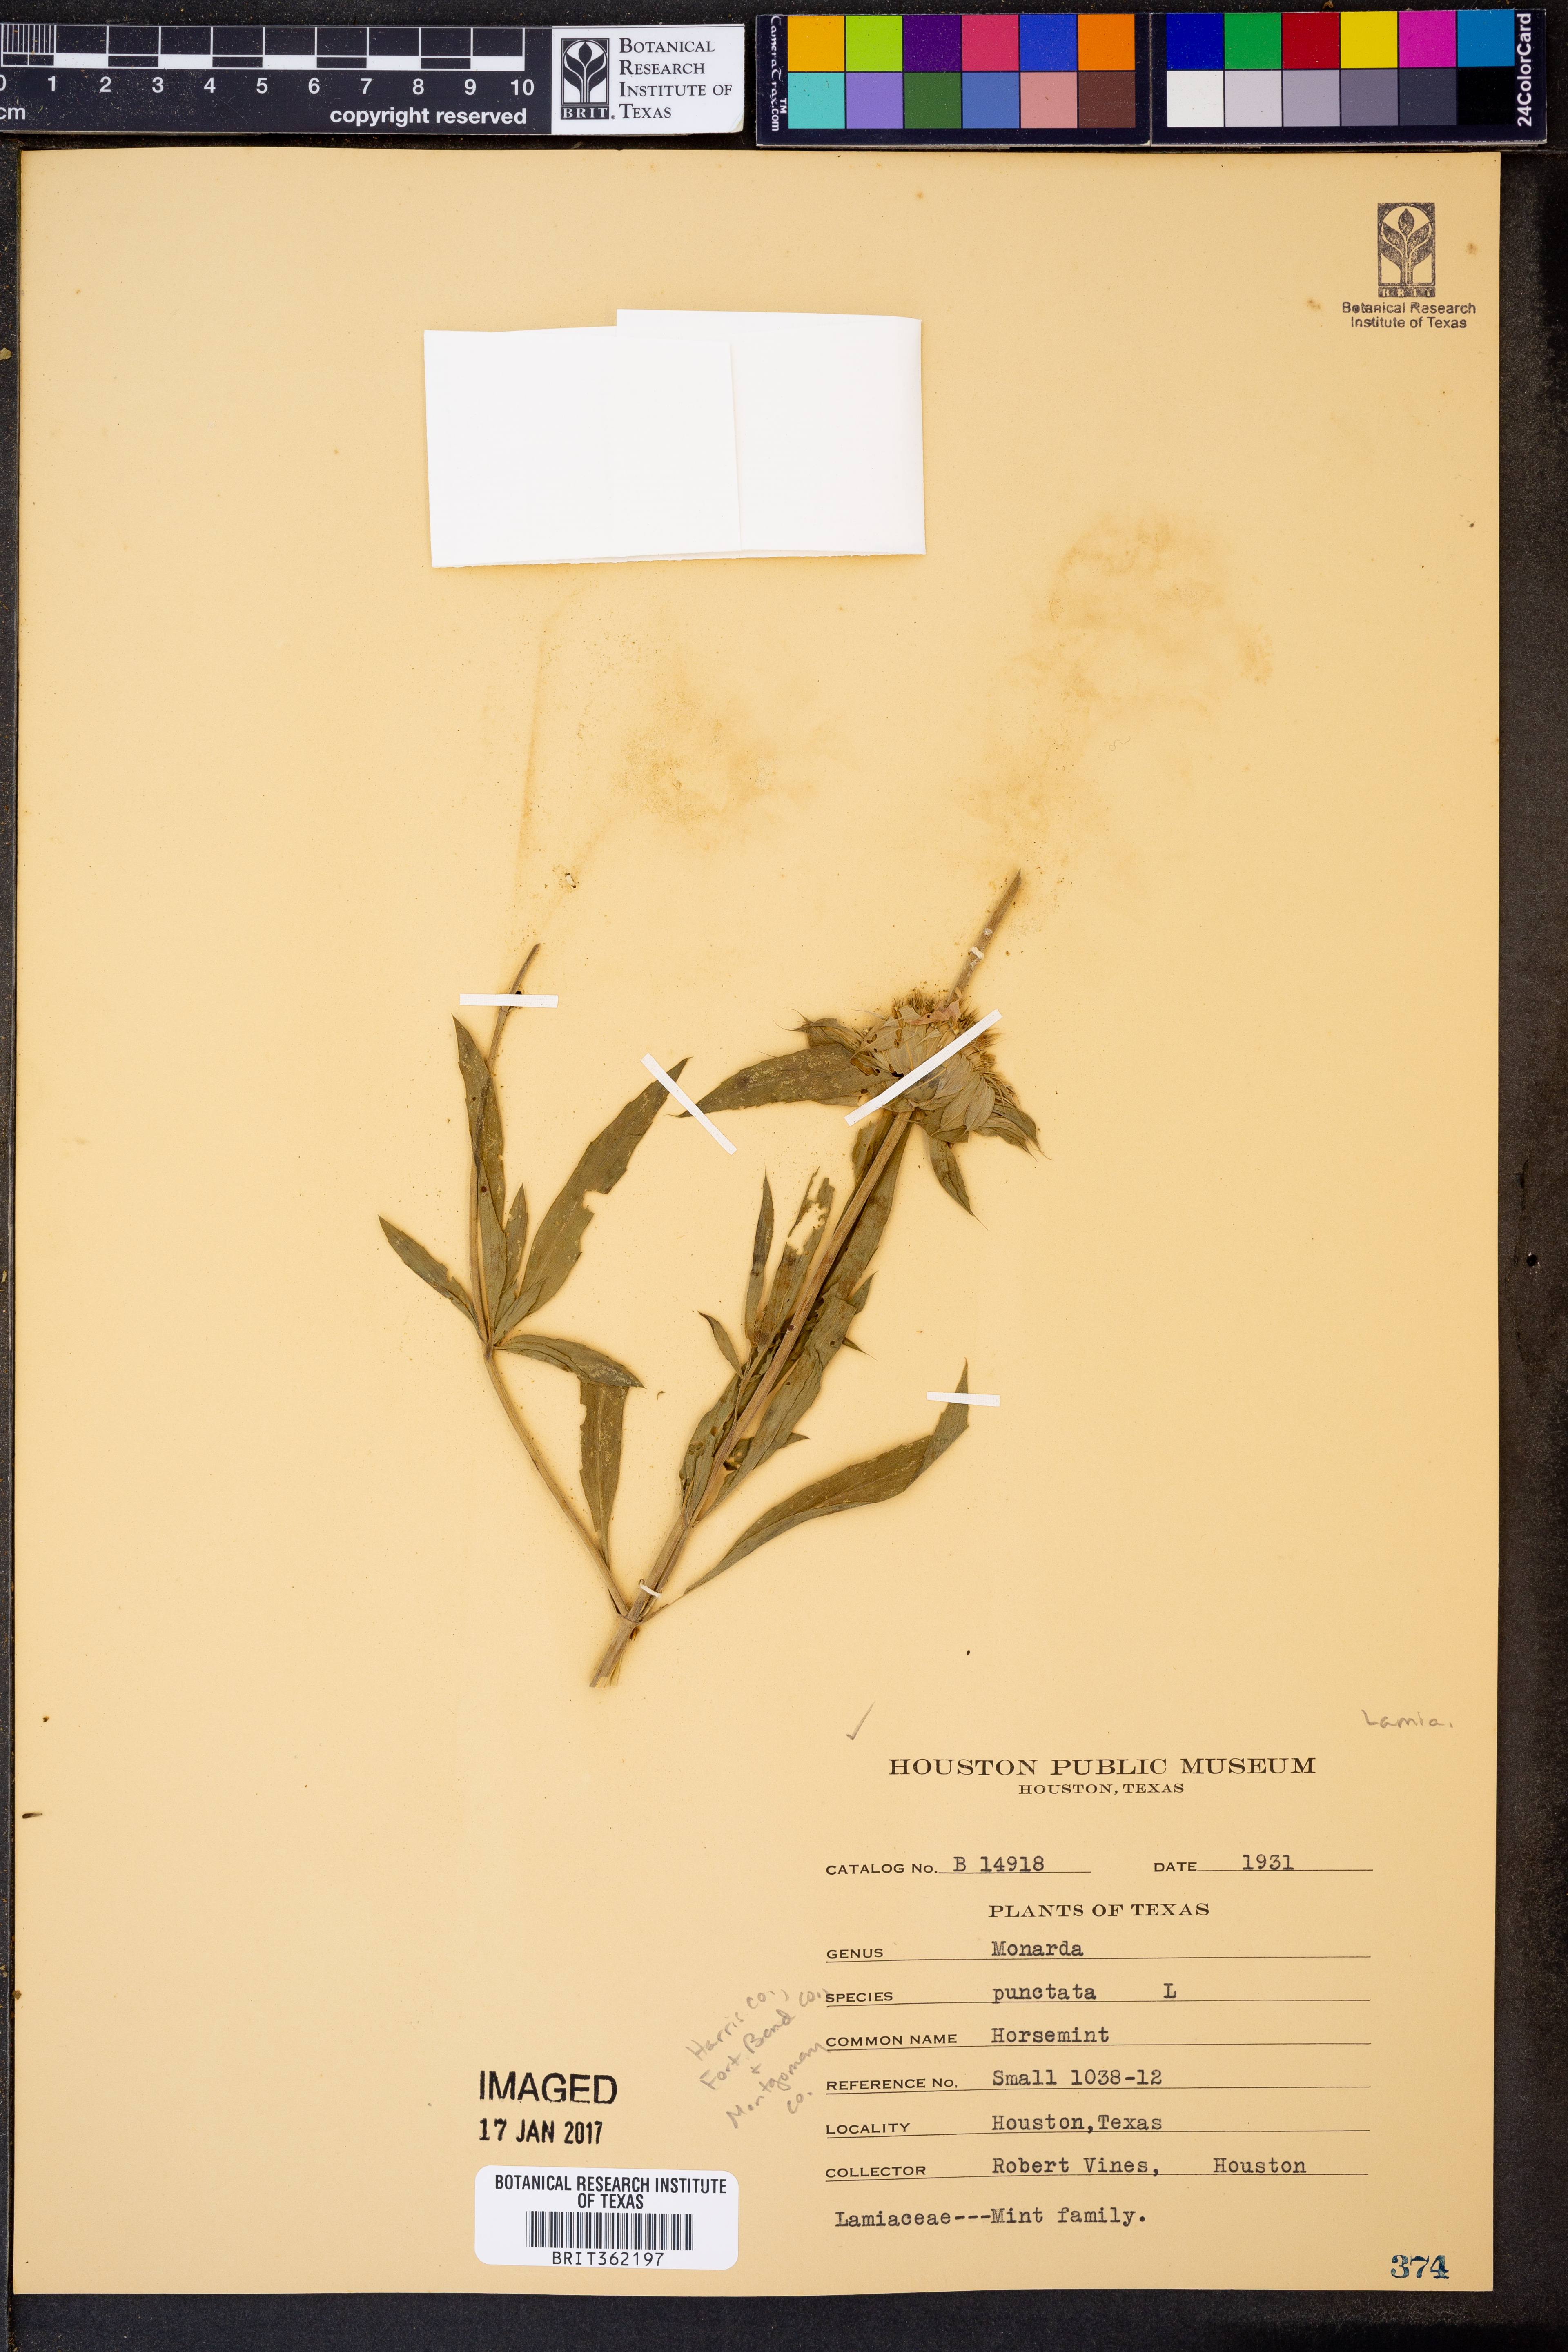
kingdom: Plantae
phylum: Tracheophyta
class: Magnoliopsida
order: Lamiales
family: Lamiaceae
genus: Monarda
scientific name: Monarda punctata
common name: Dotted monarda
